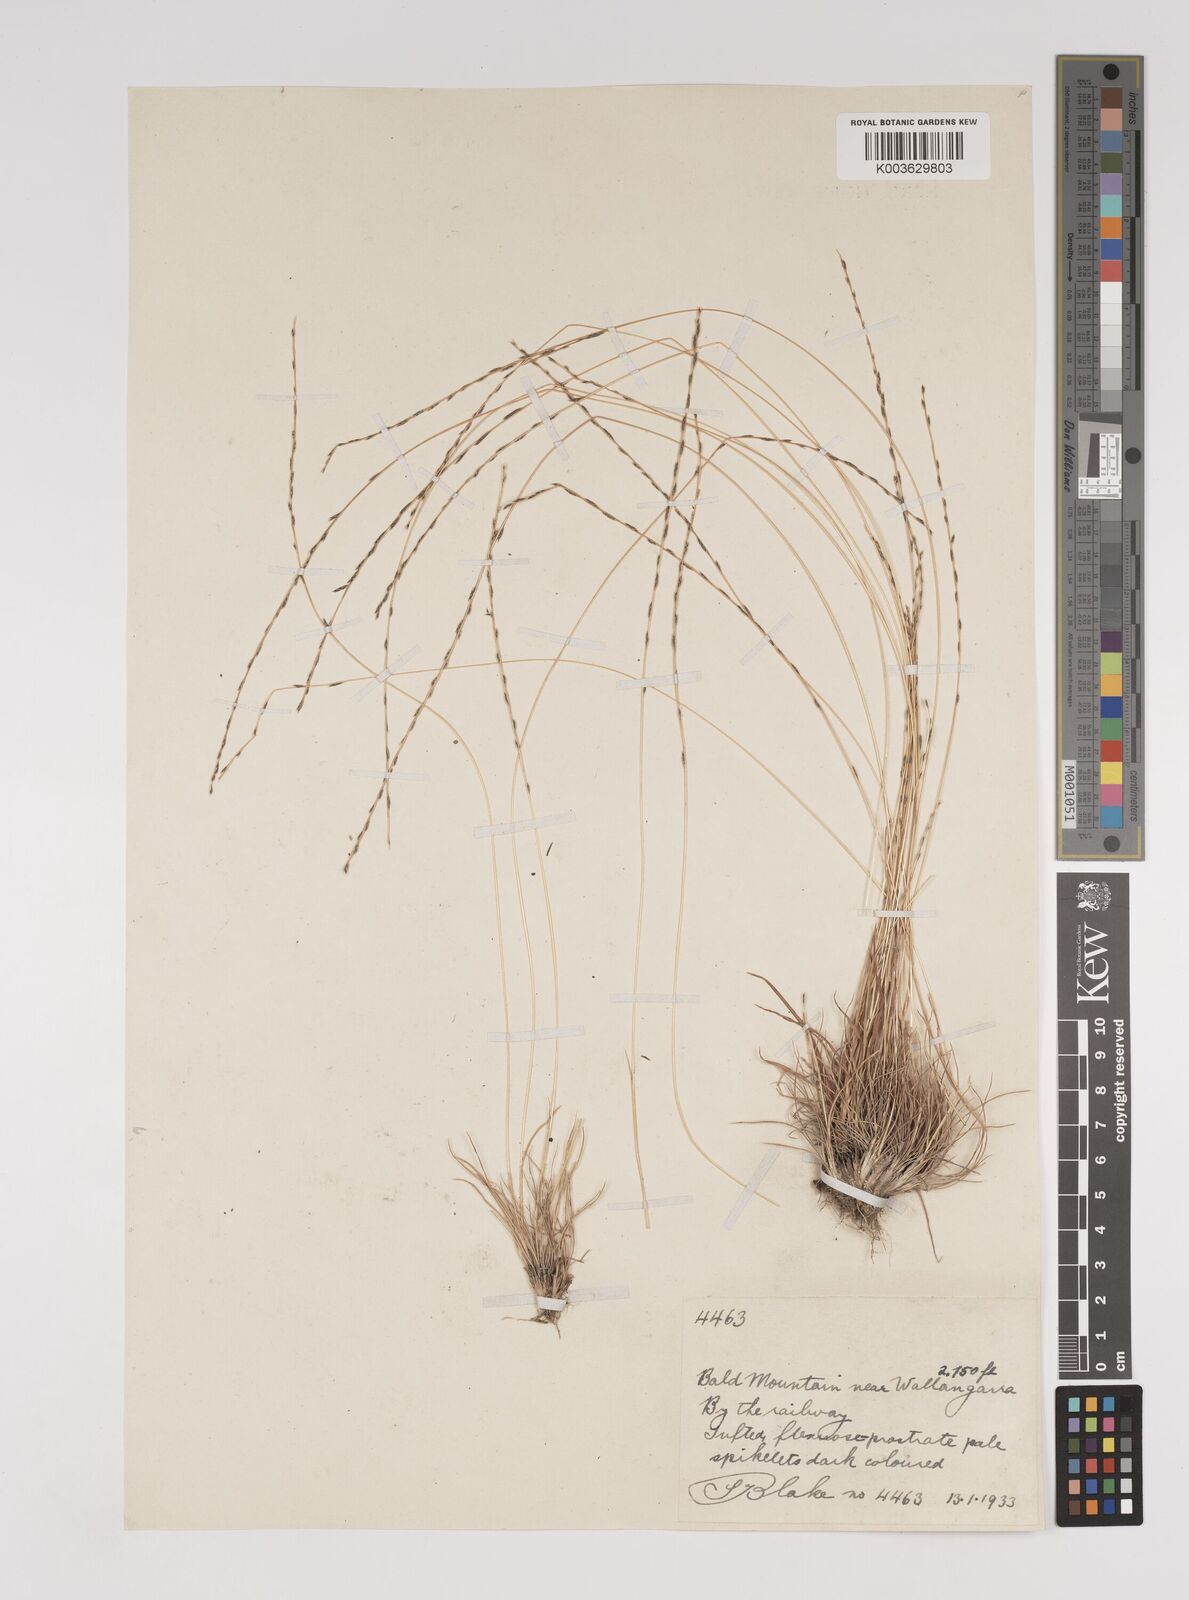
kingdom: Plantae
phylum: Tracheophyta
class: Liliopsida
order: Poales
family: Poaceae
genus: Tripogonella
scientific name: Tripogonella loliiformis
